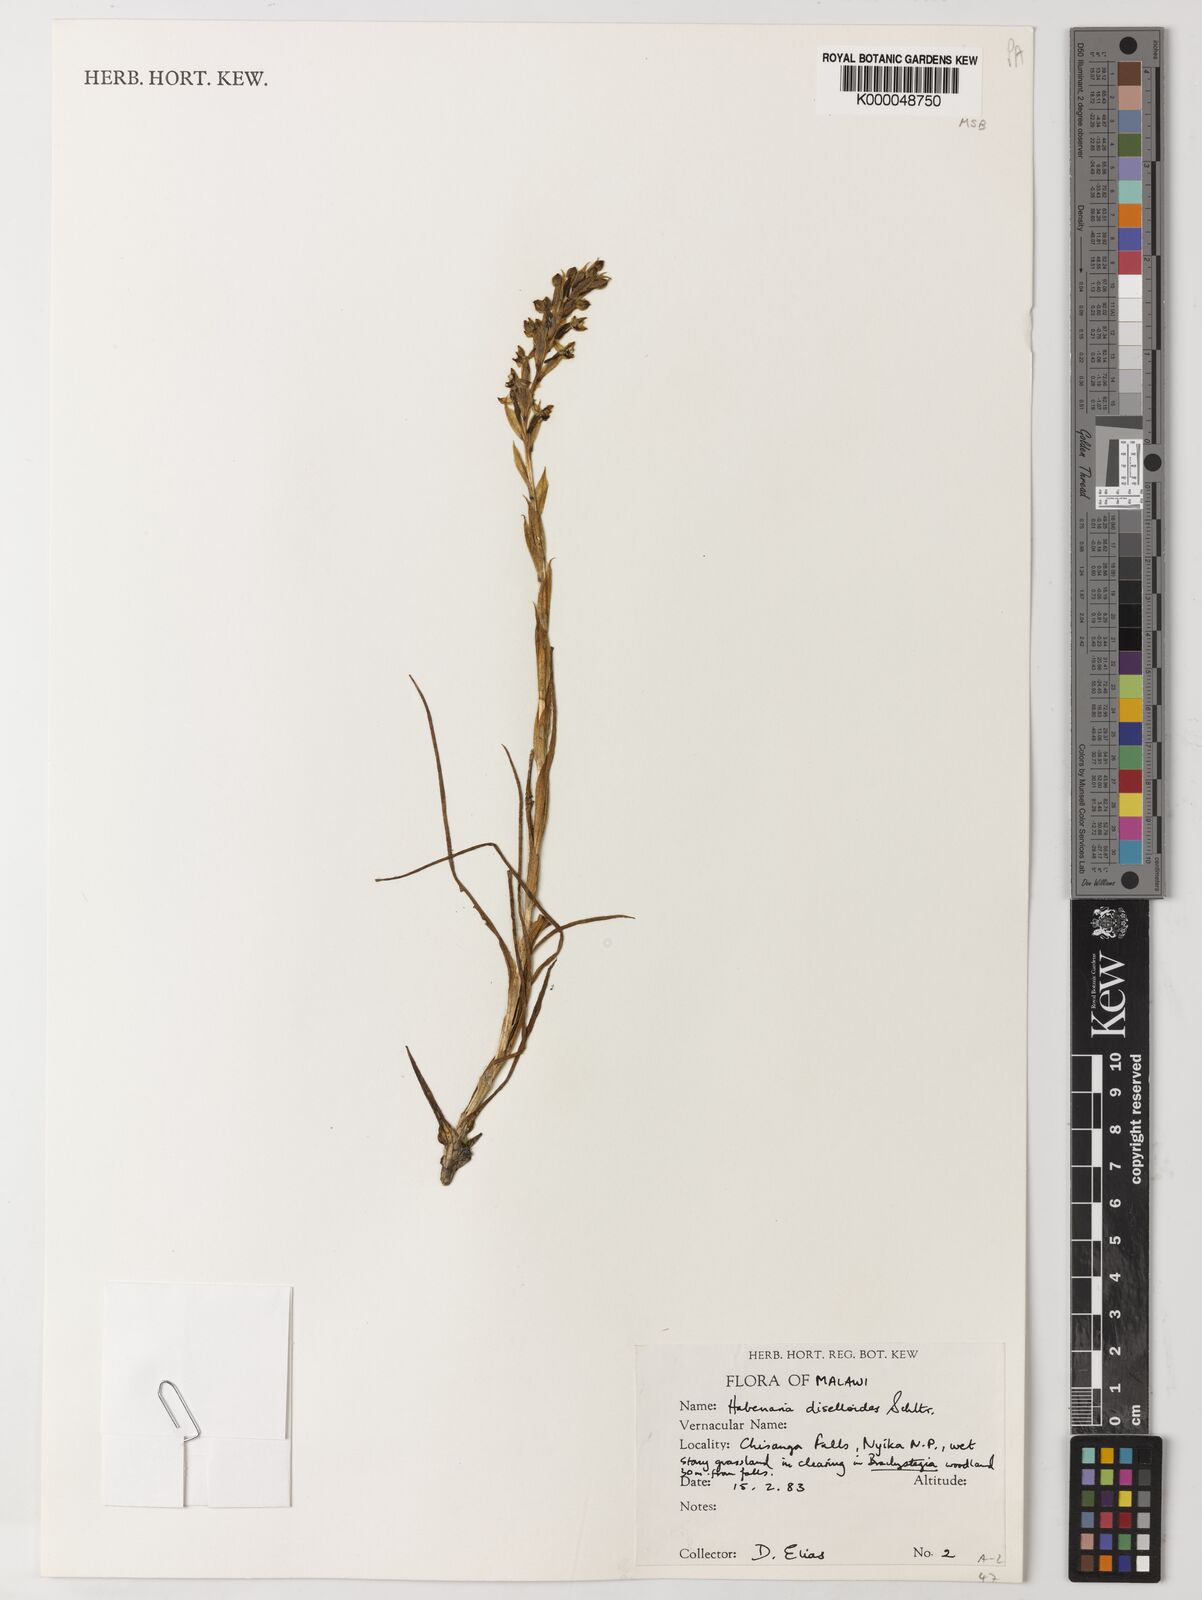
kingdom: Plantae
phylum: Tracheophyta
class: Liliopsida
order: Asparagales
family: Orchidaceae
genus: Habenaria
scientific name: Habenaria diselloides
